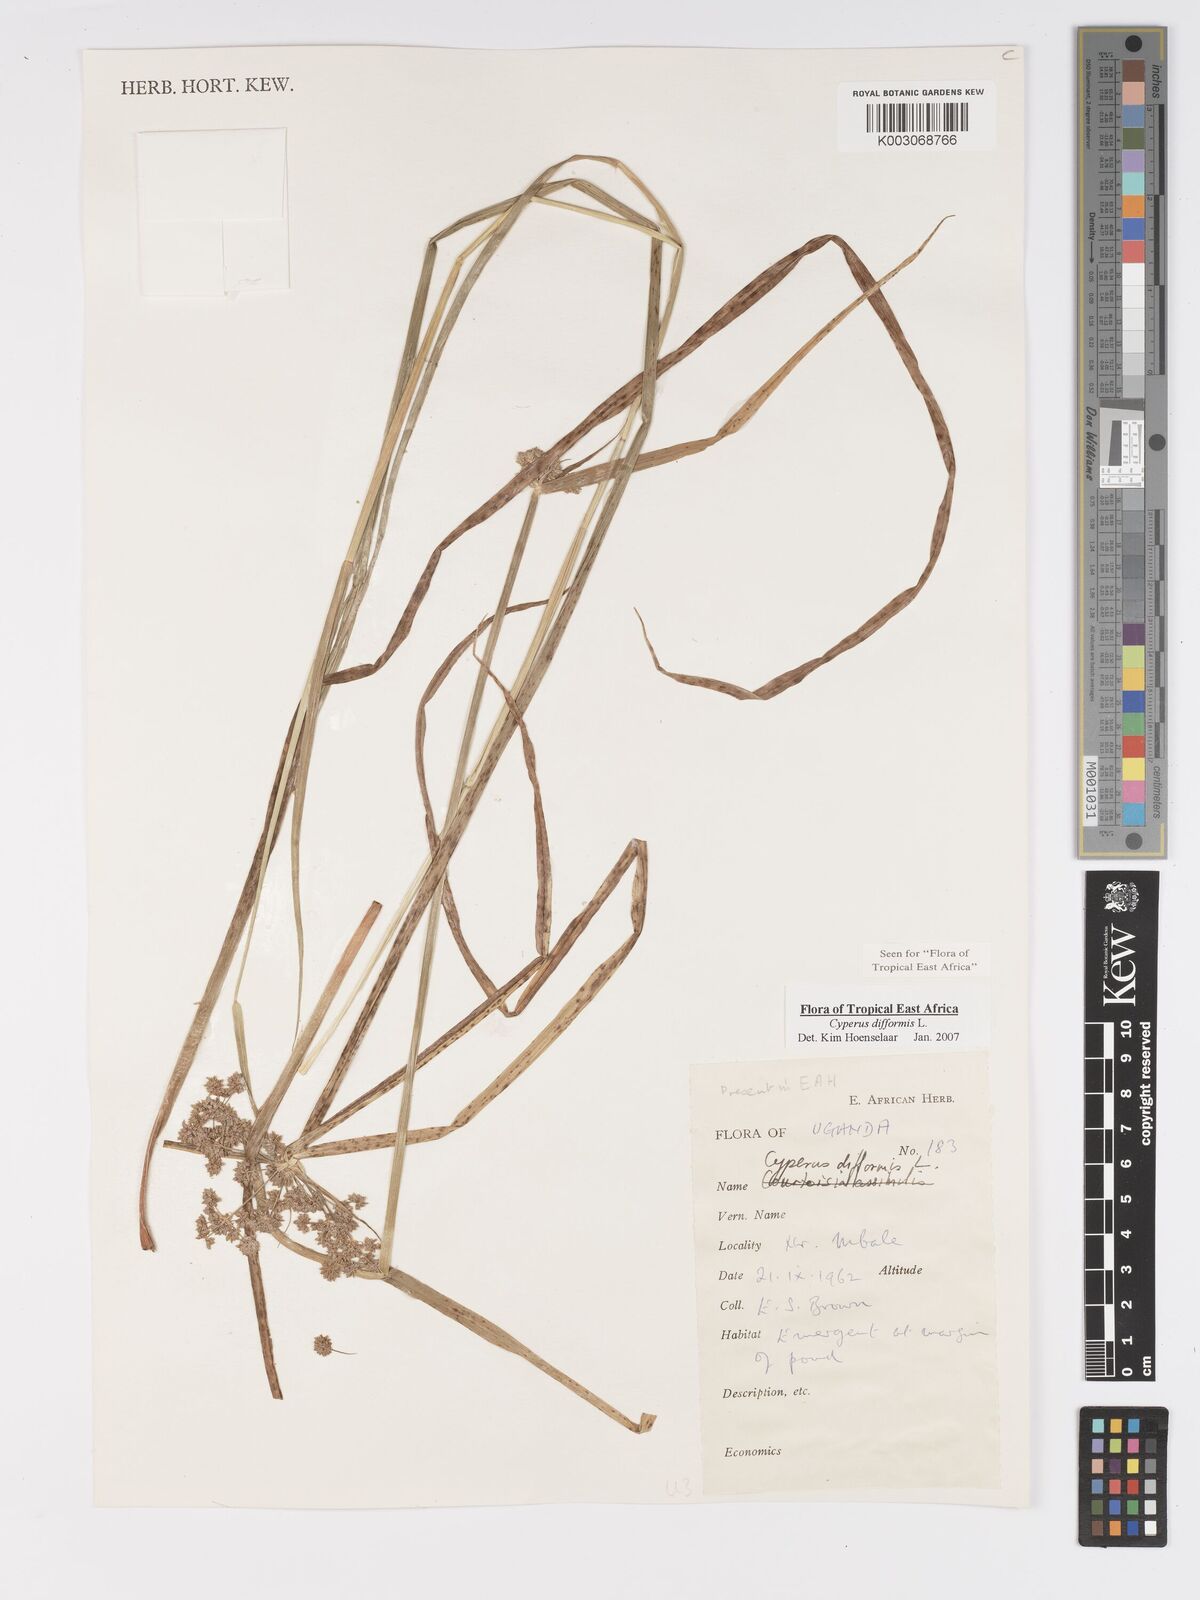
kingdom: Plantae
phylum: Tracheophyta
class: Liliopsida
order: Poales
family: Cyperaceae
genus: Cyperus
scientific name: Cyperus difformis
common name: Variable flatsedge
